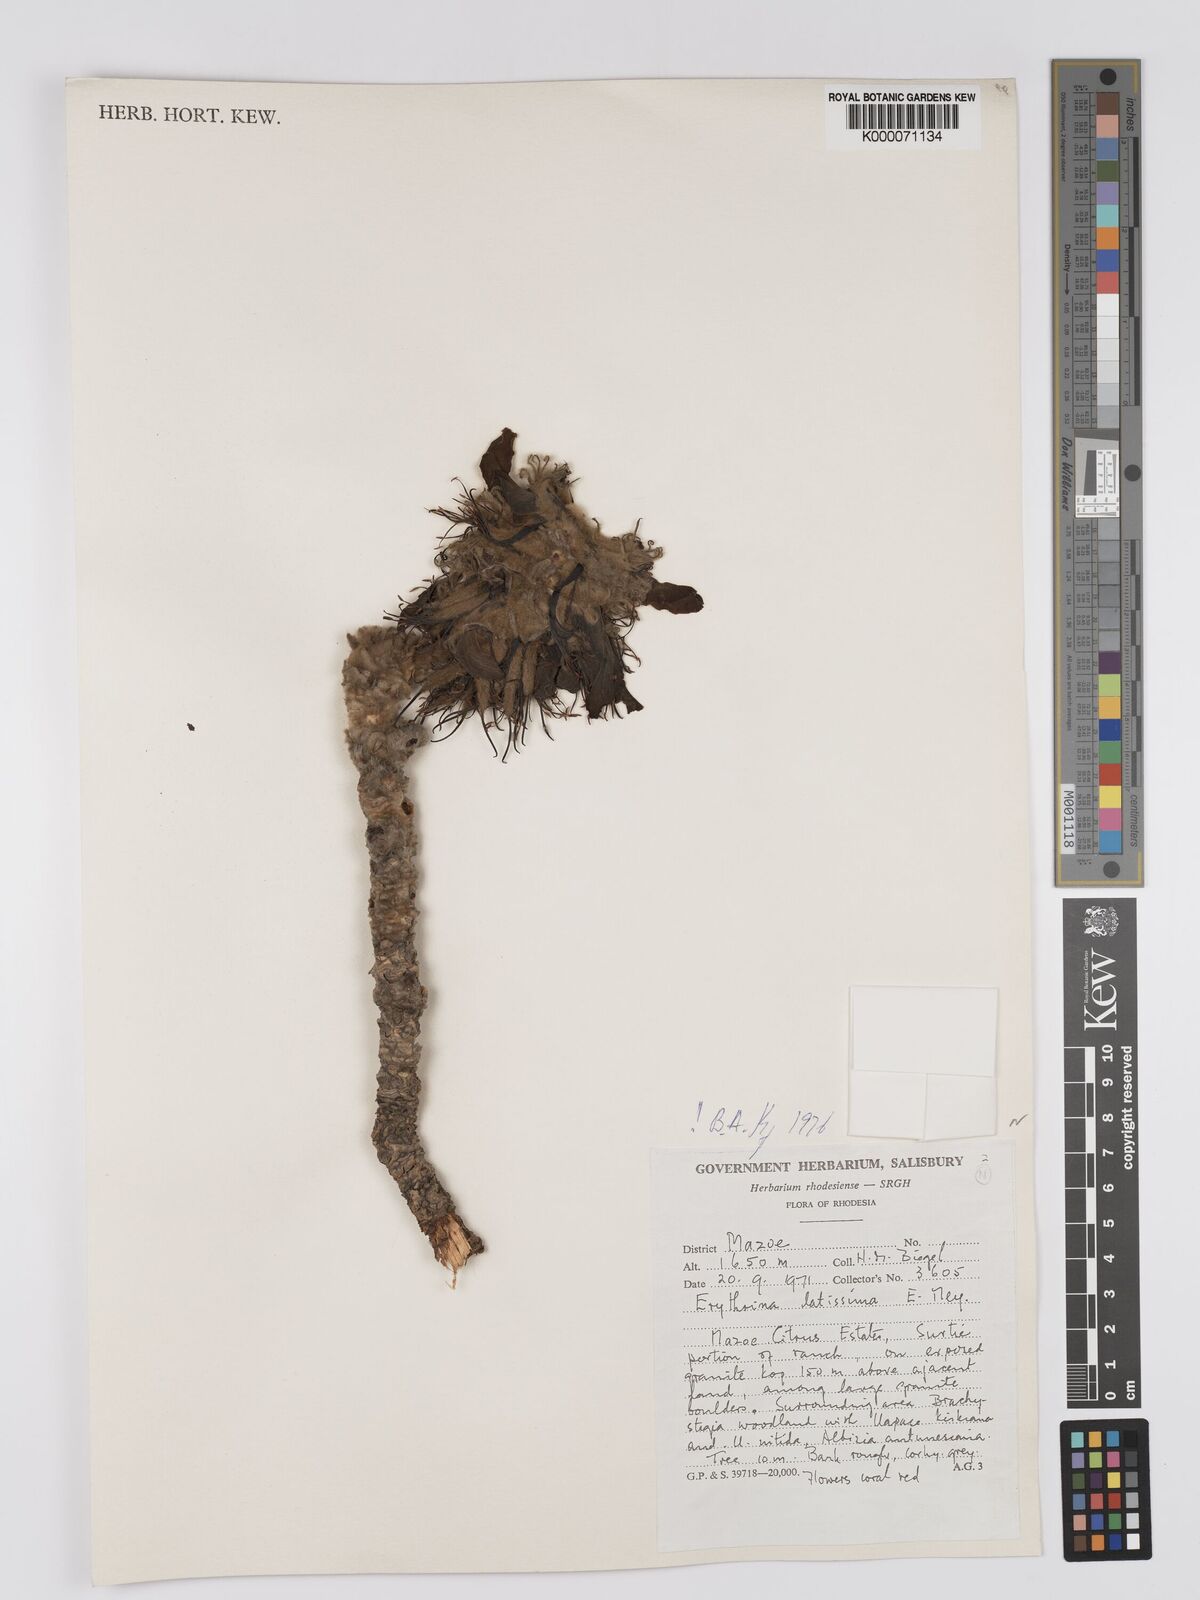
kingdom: Plantae
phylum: Tracheophyta
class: Magnoliopsida
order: Fabales
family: Fabaceae
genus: Erythrina
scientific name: Erythrina latissima
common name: Broad-leaved coral tree
